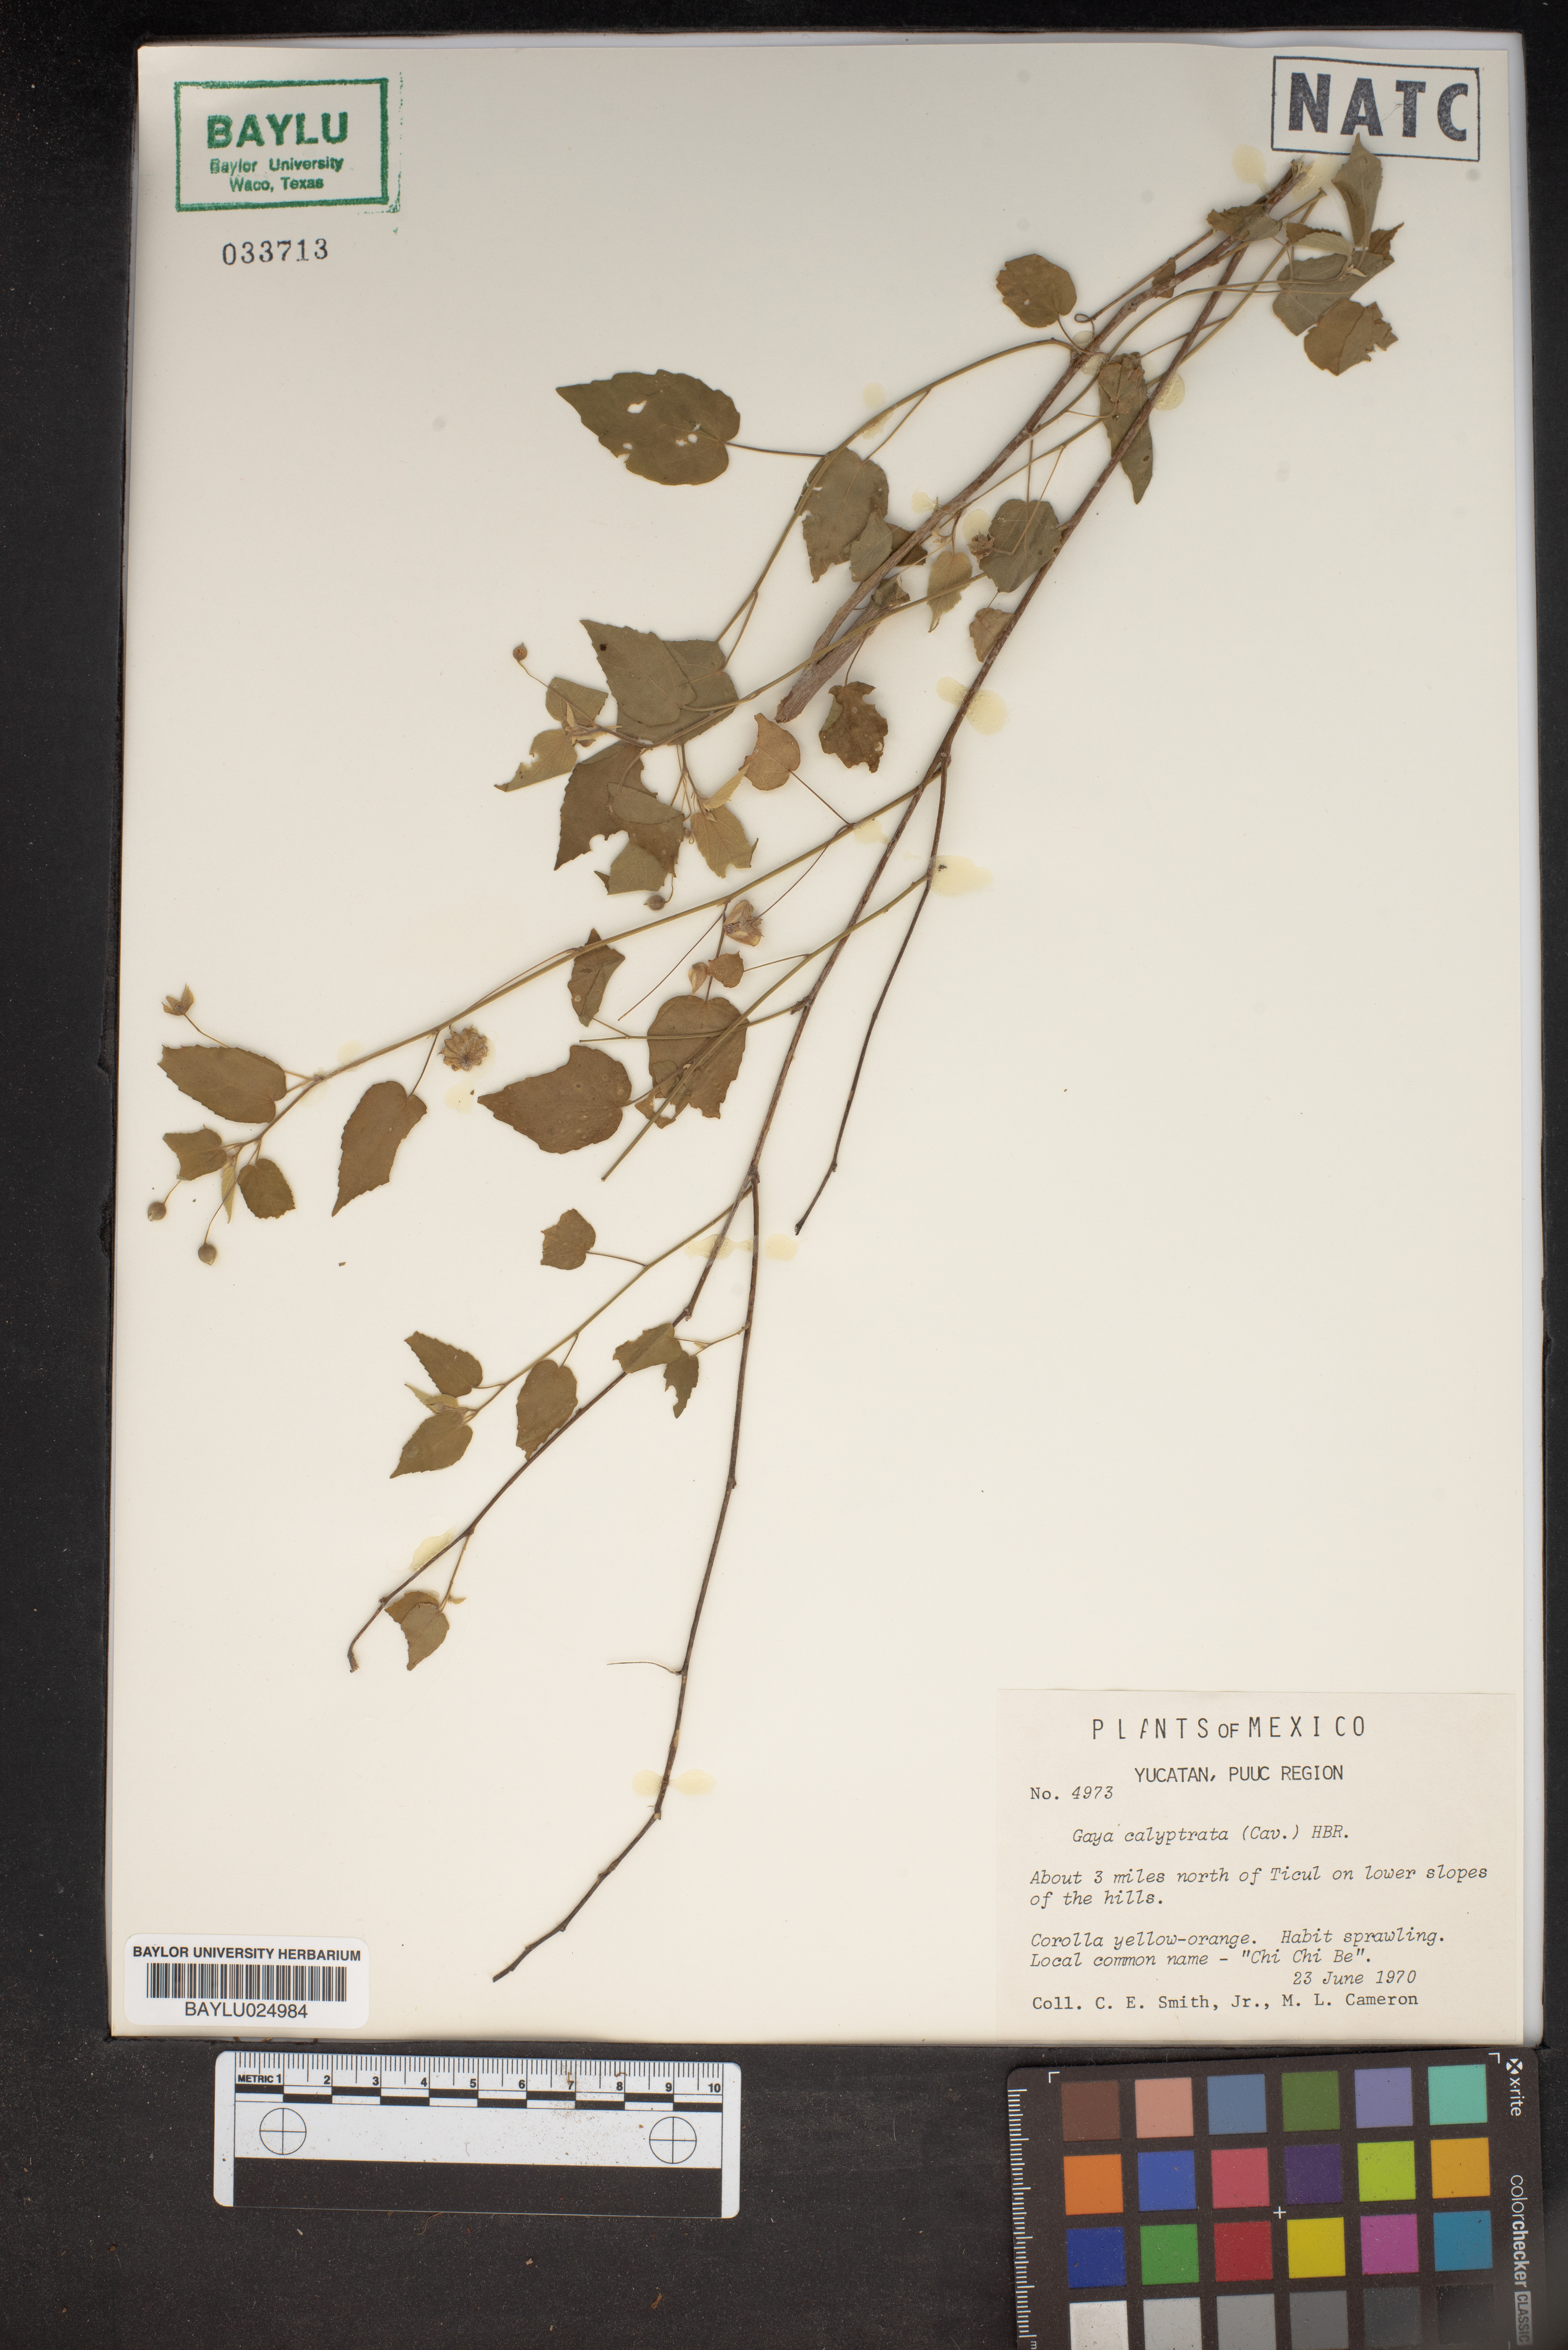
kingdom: Plantae
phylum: Tracheophyta
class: Magnoliopsida
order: Malvales
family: Malvaceae
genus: Gaya
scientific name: Gaya calyptrata
